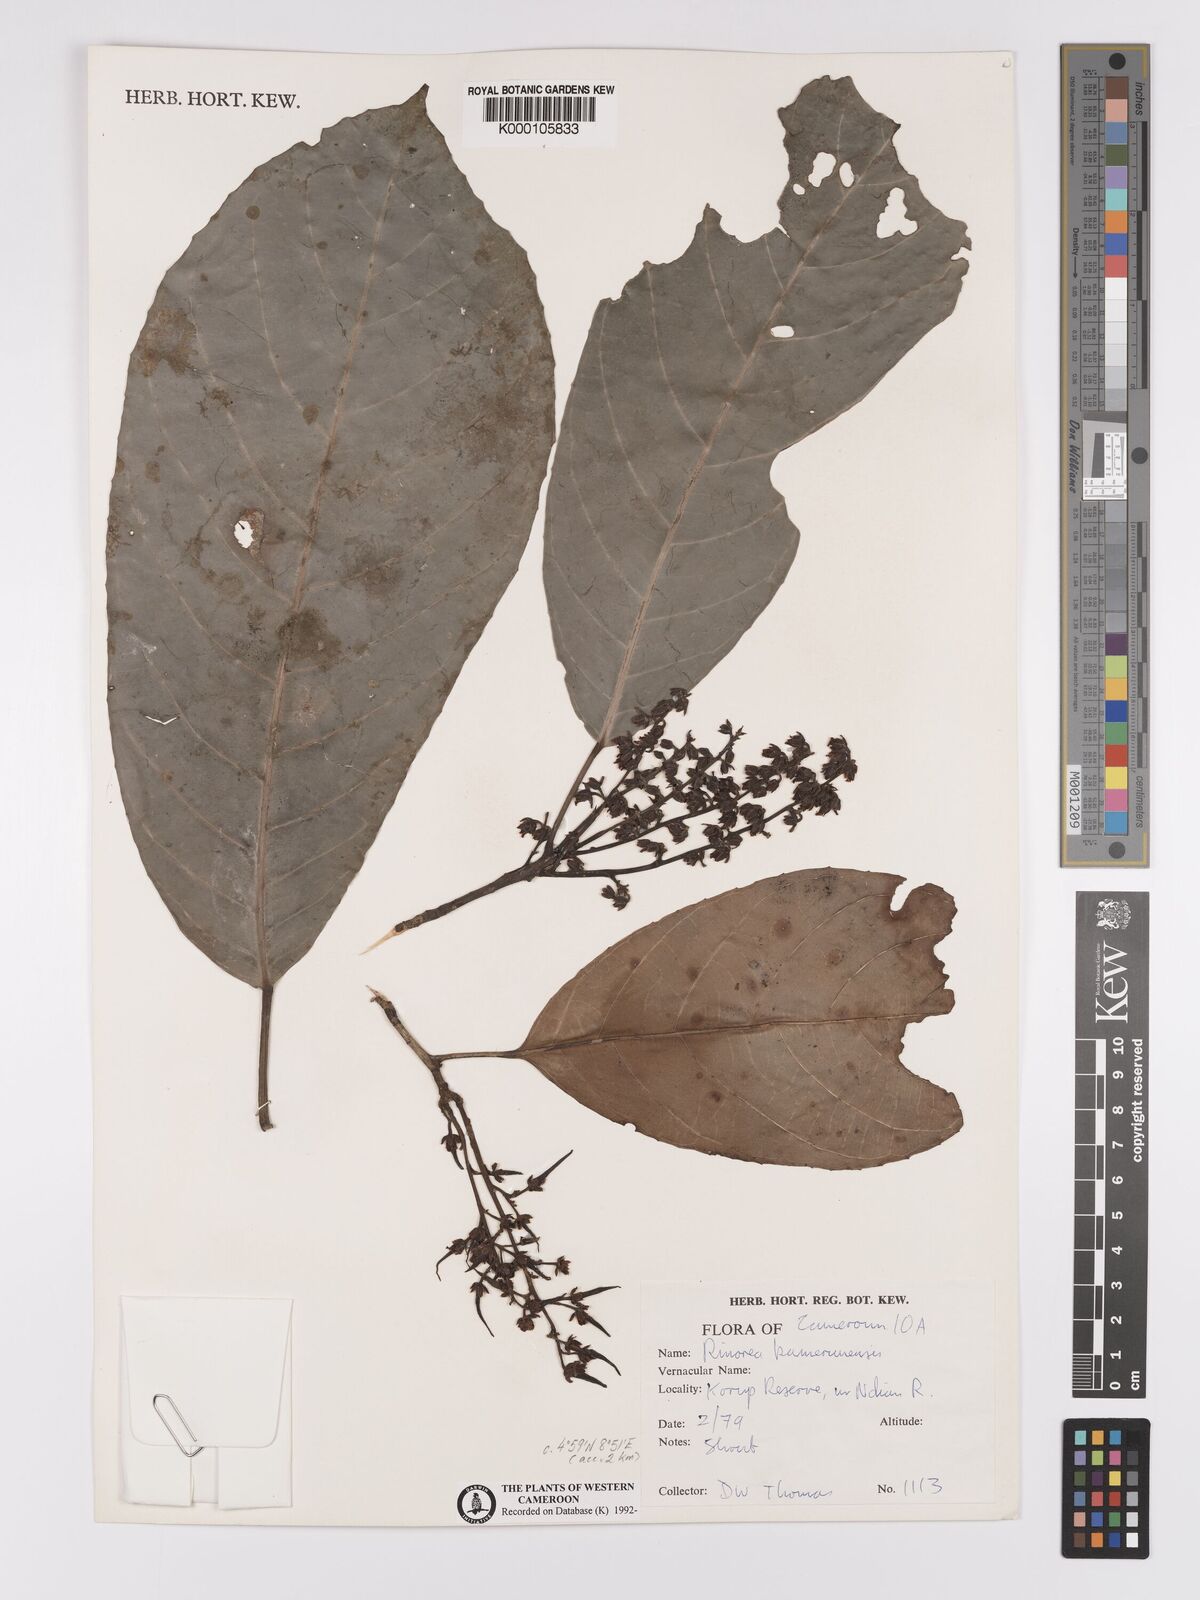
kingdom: Plantae
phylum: Tracheophyta
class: Magnoliopsida
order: Malpighiales
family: Violaceae
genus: Rinorea
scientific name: Rinorea kamerunensis
